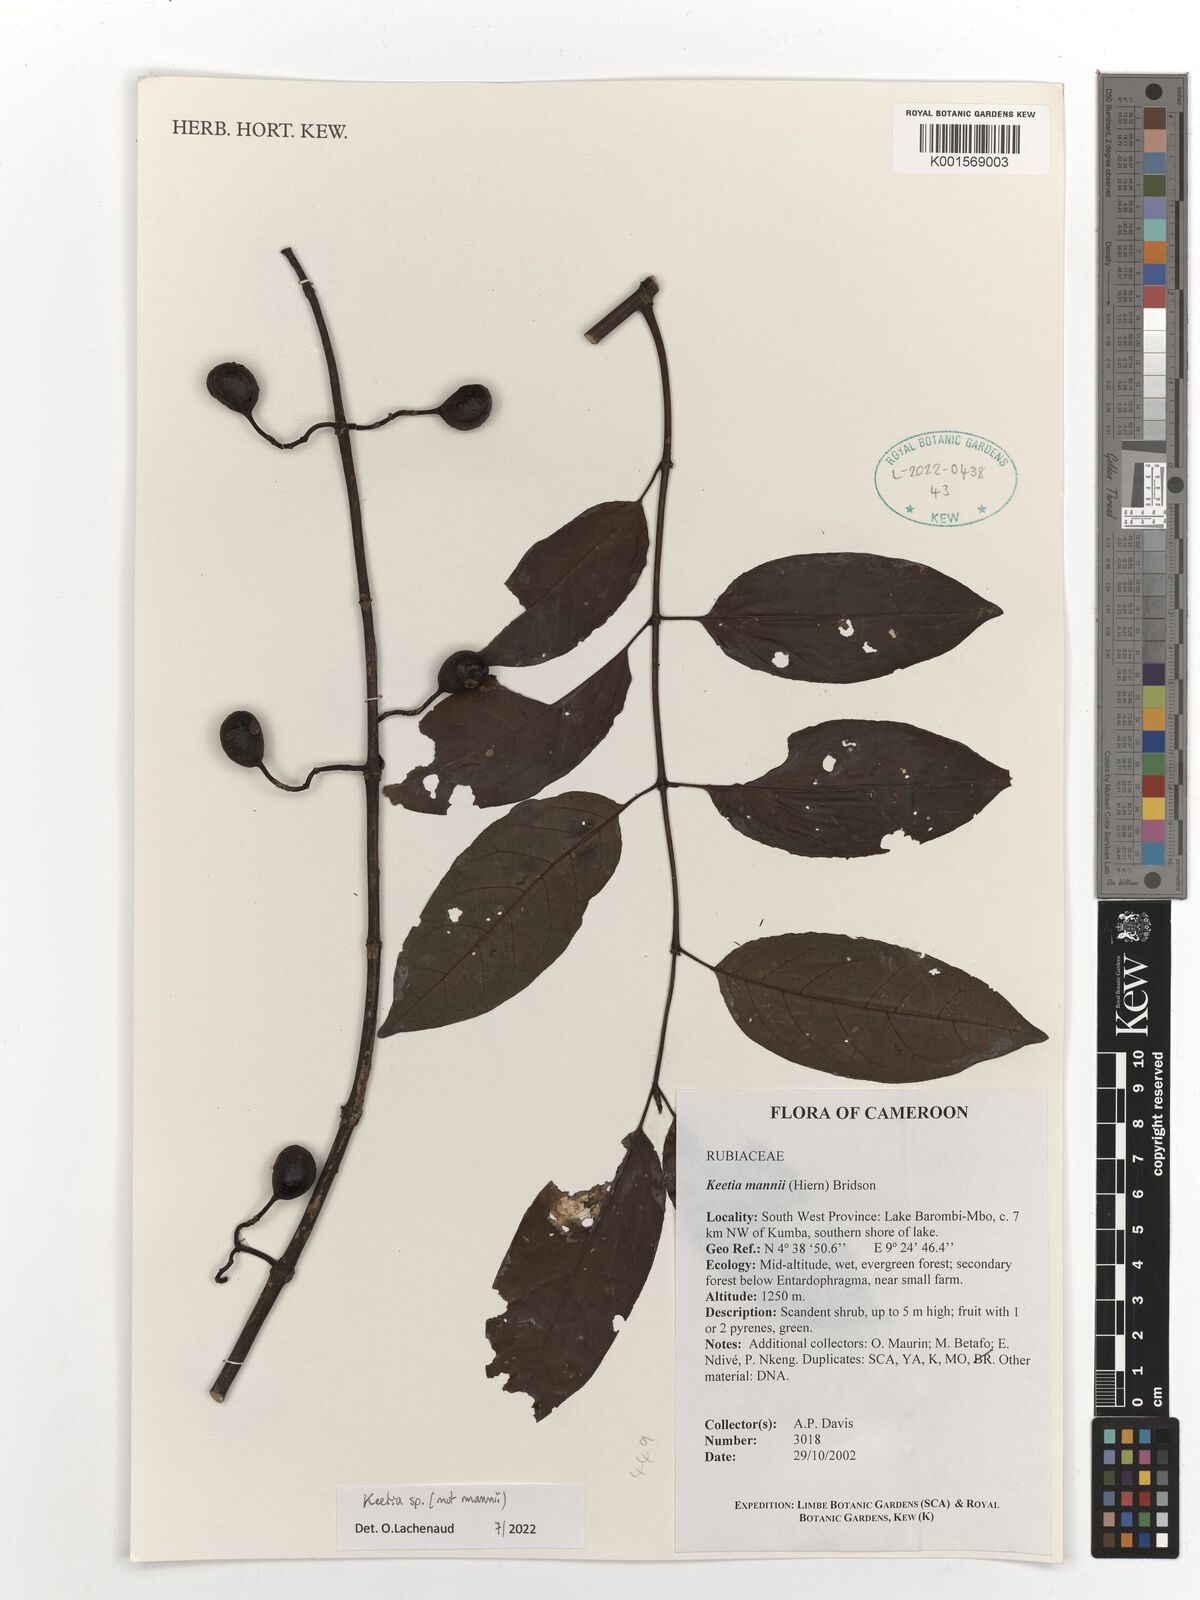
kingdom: Plantae
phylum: Tracheophyta
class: Magnoliopsida
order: Gentianales
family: Rubiaceae
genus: Keetia
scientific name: Keetia
